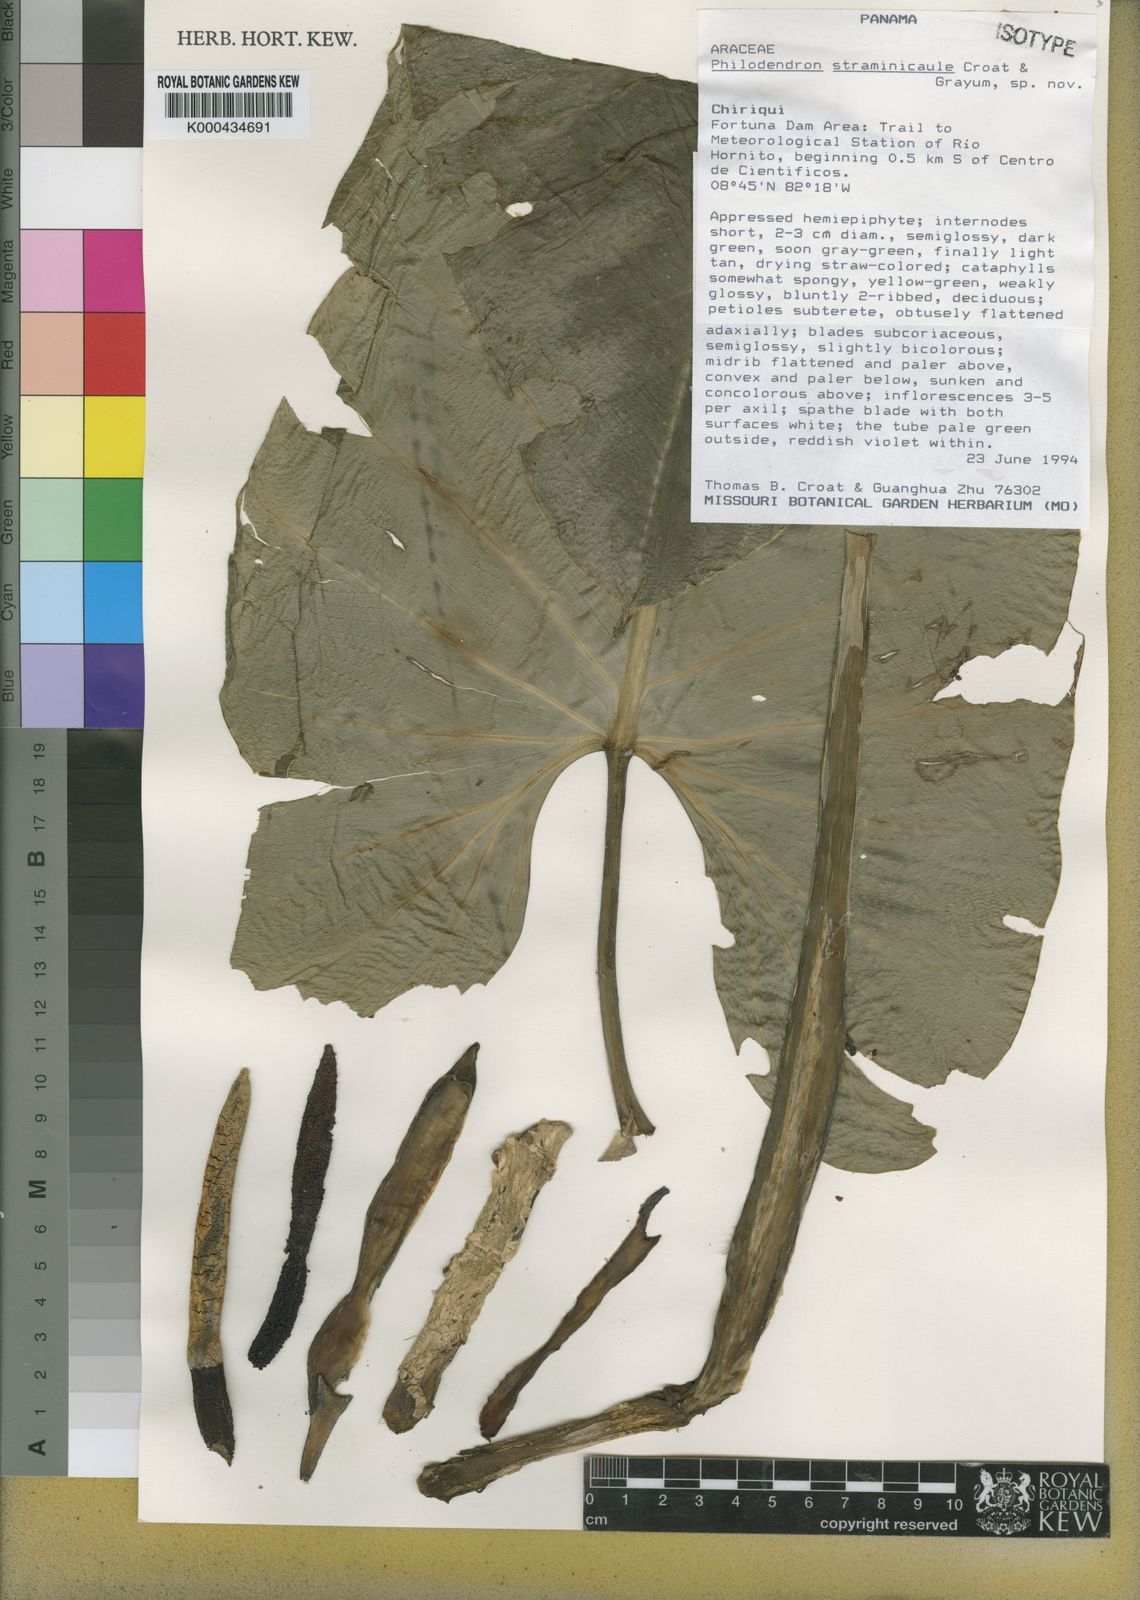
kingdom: Plantae
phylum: Tracheophyta
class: Liliopsida
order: Alismatales
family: Araceae
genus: Philodendron
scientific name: Philodendron straminicaule
